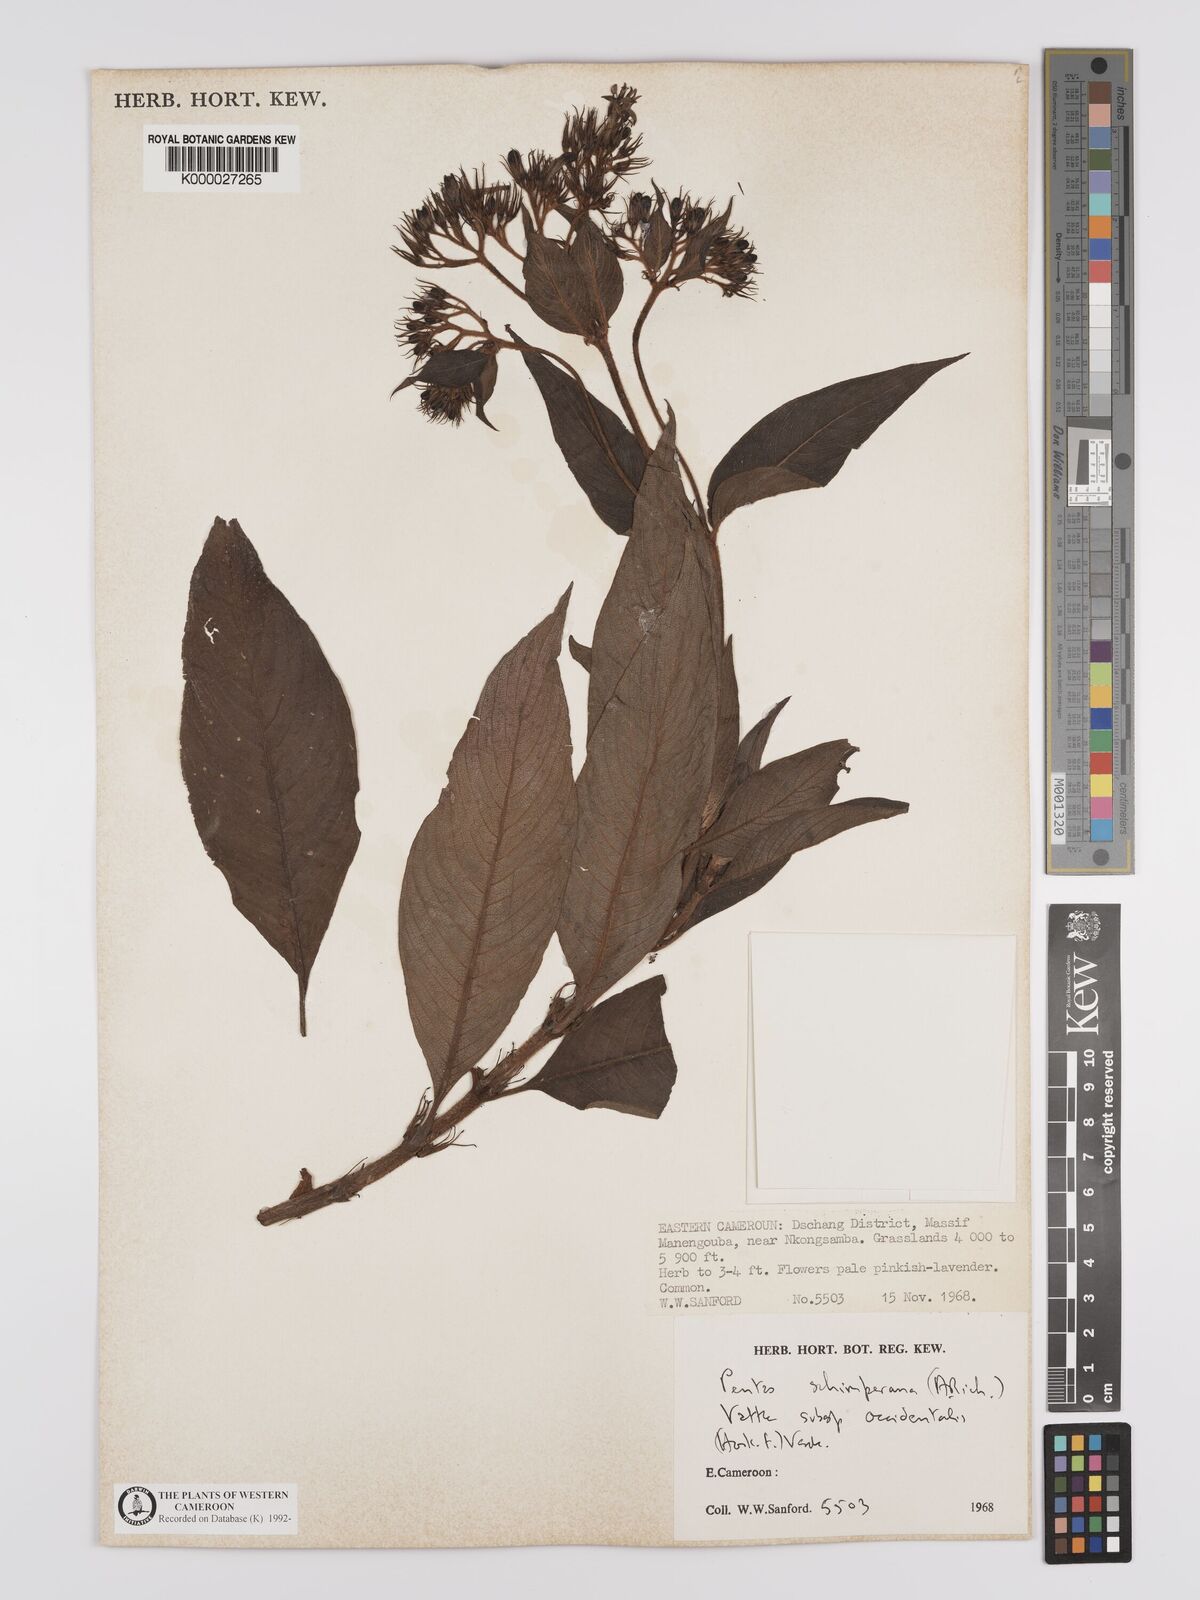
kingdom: Plantae
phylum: Tracheophyta
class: Magnoliopsida
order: Gentianales
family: Rubiaceae
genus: Phyllopentas
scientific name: Phyllopentas schimperi
